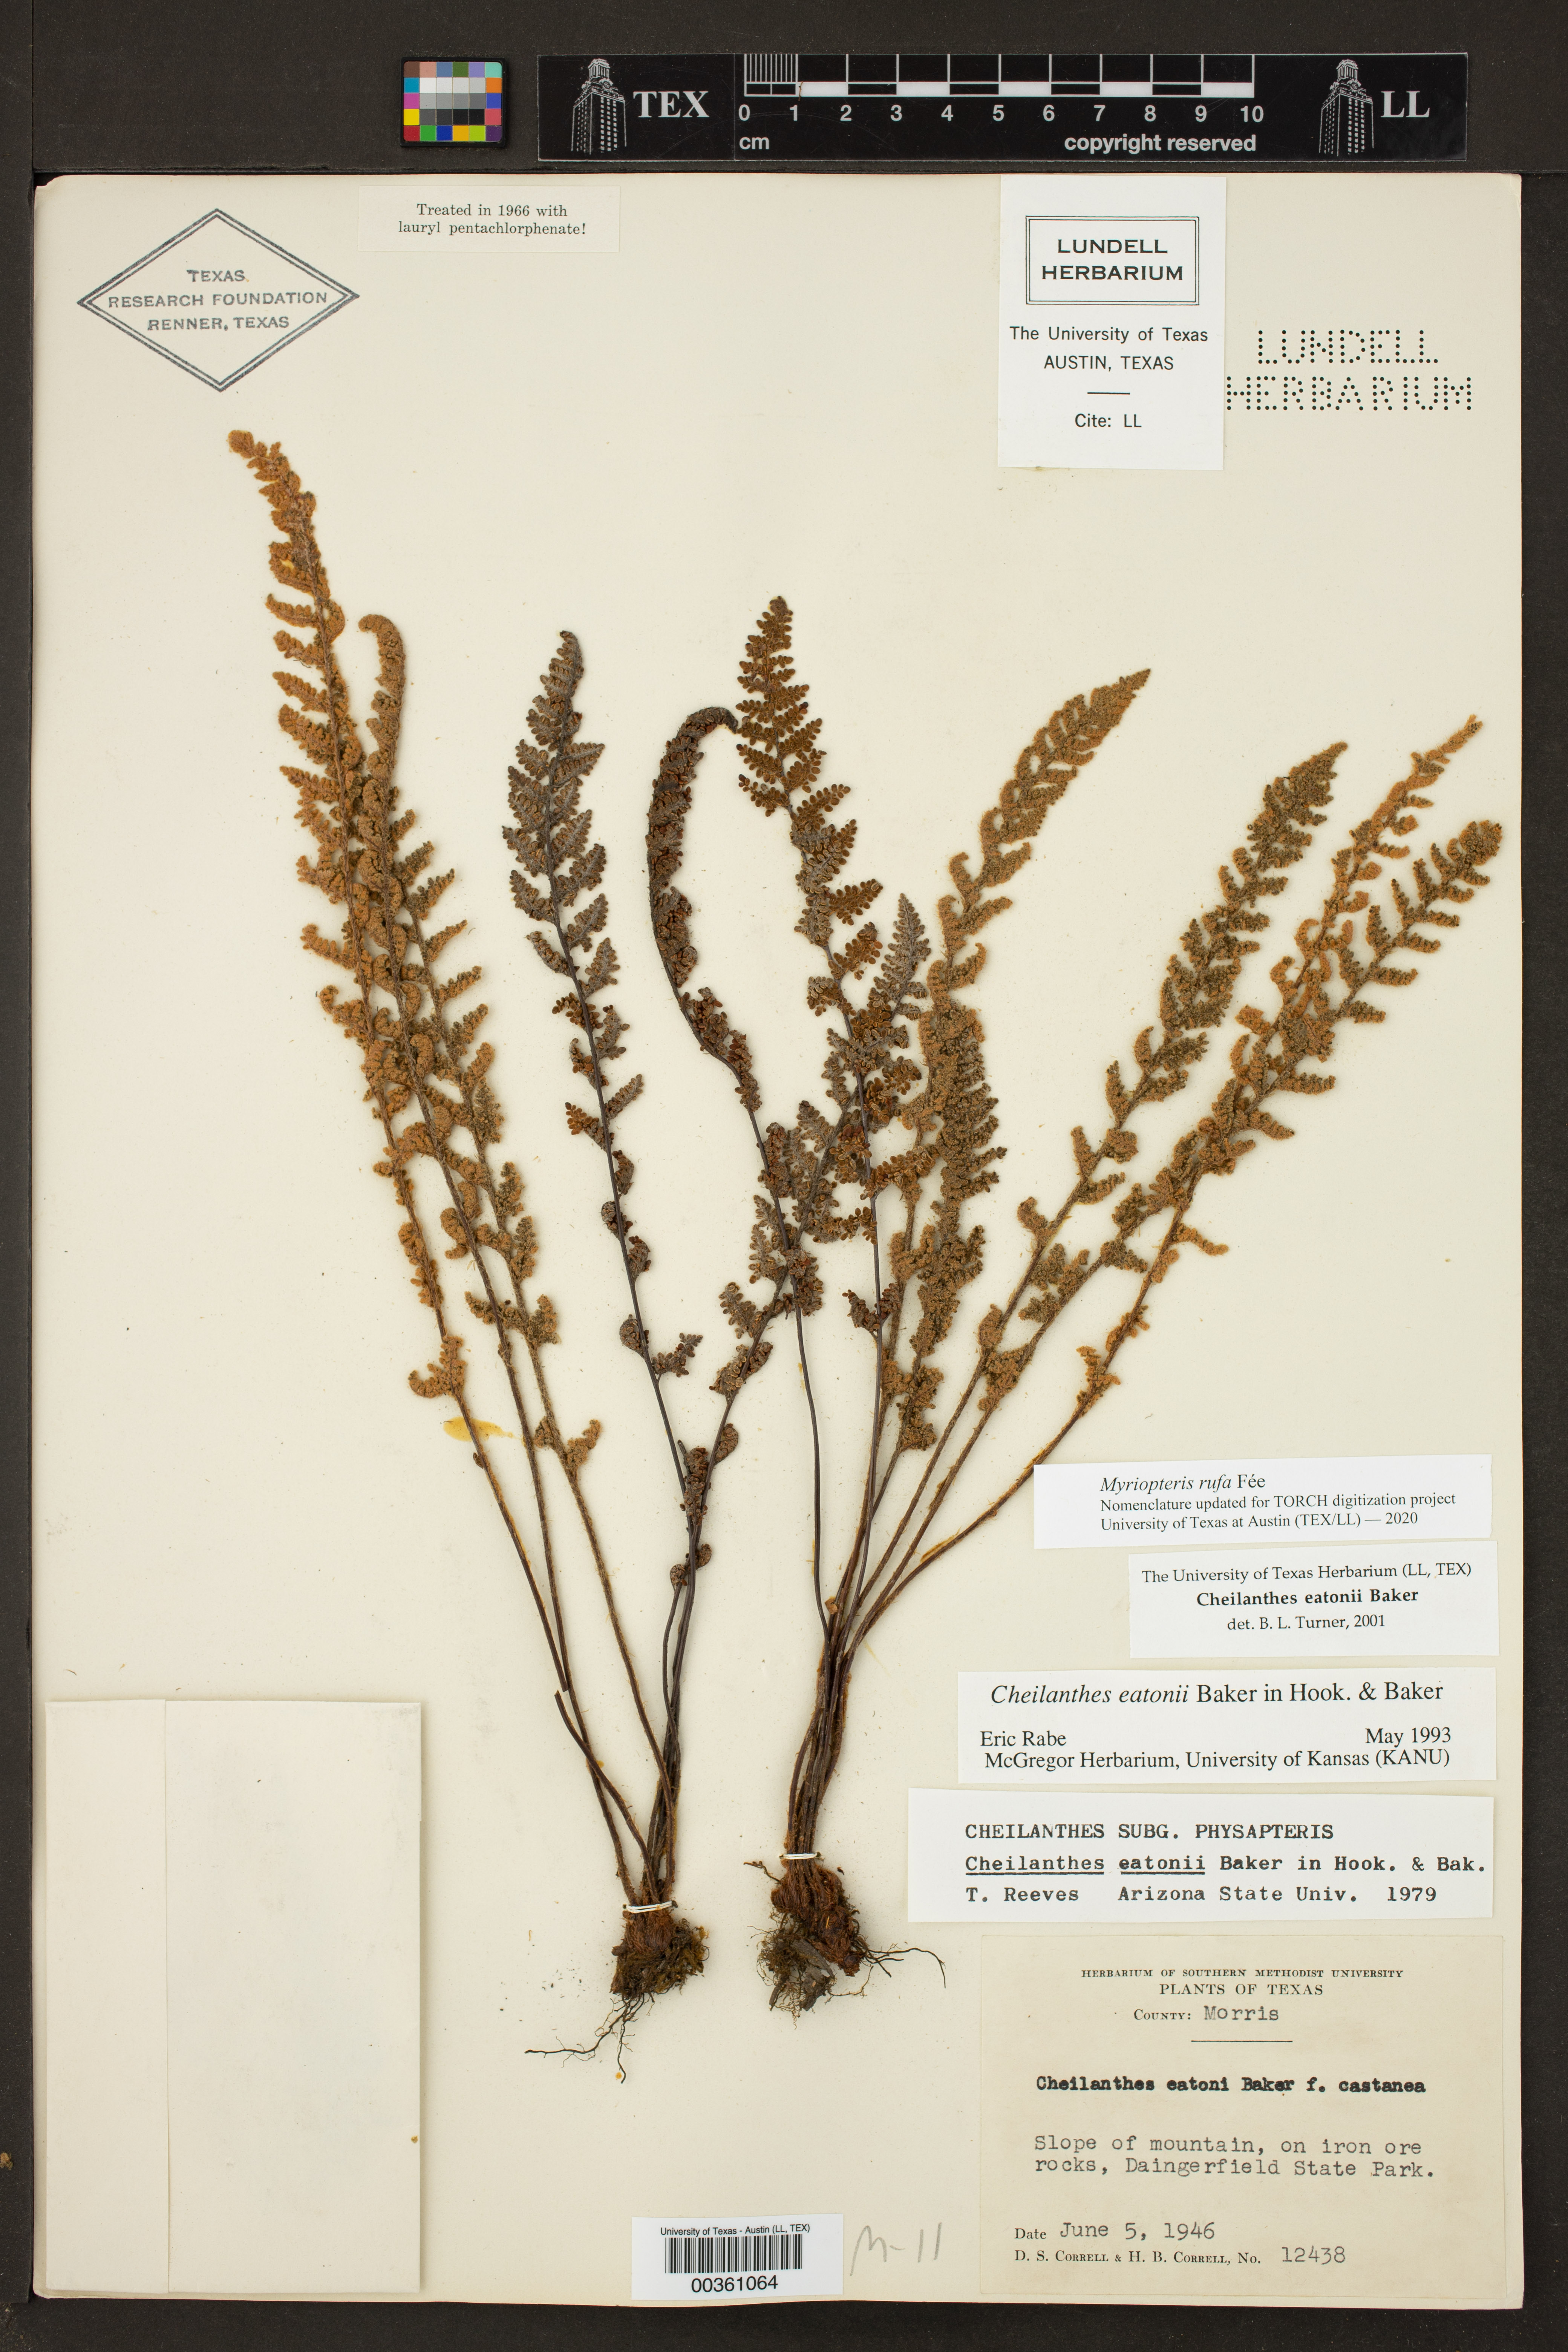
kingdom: Plantae
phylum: Tracheophyta
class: Polypodiopsida
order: Polypodiales
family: Pteridaceae
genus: Myriopteris
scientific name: Myriopteris rufa
